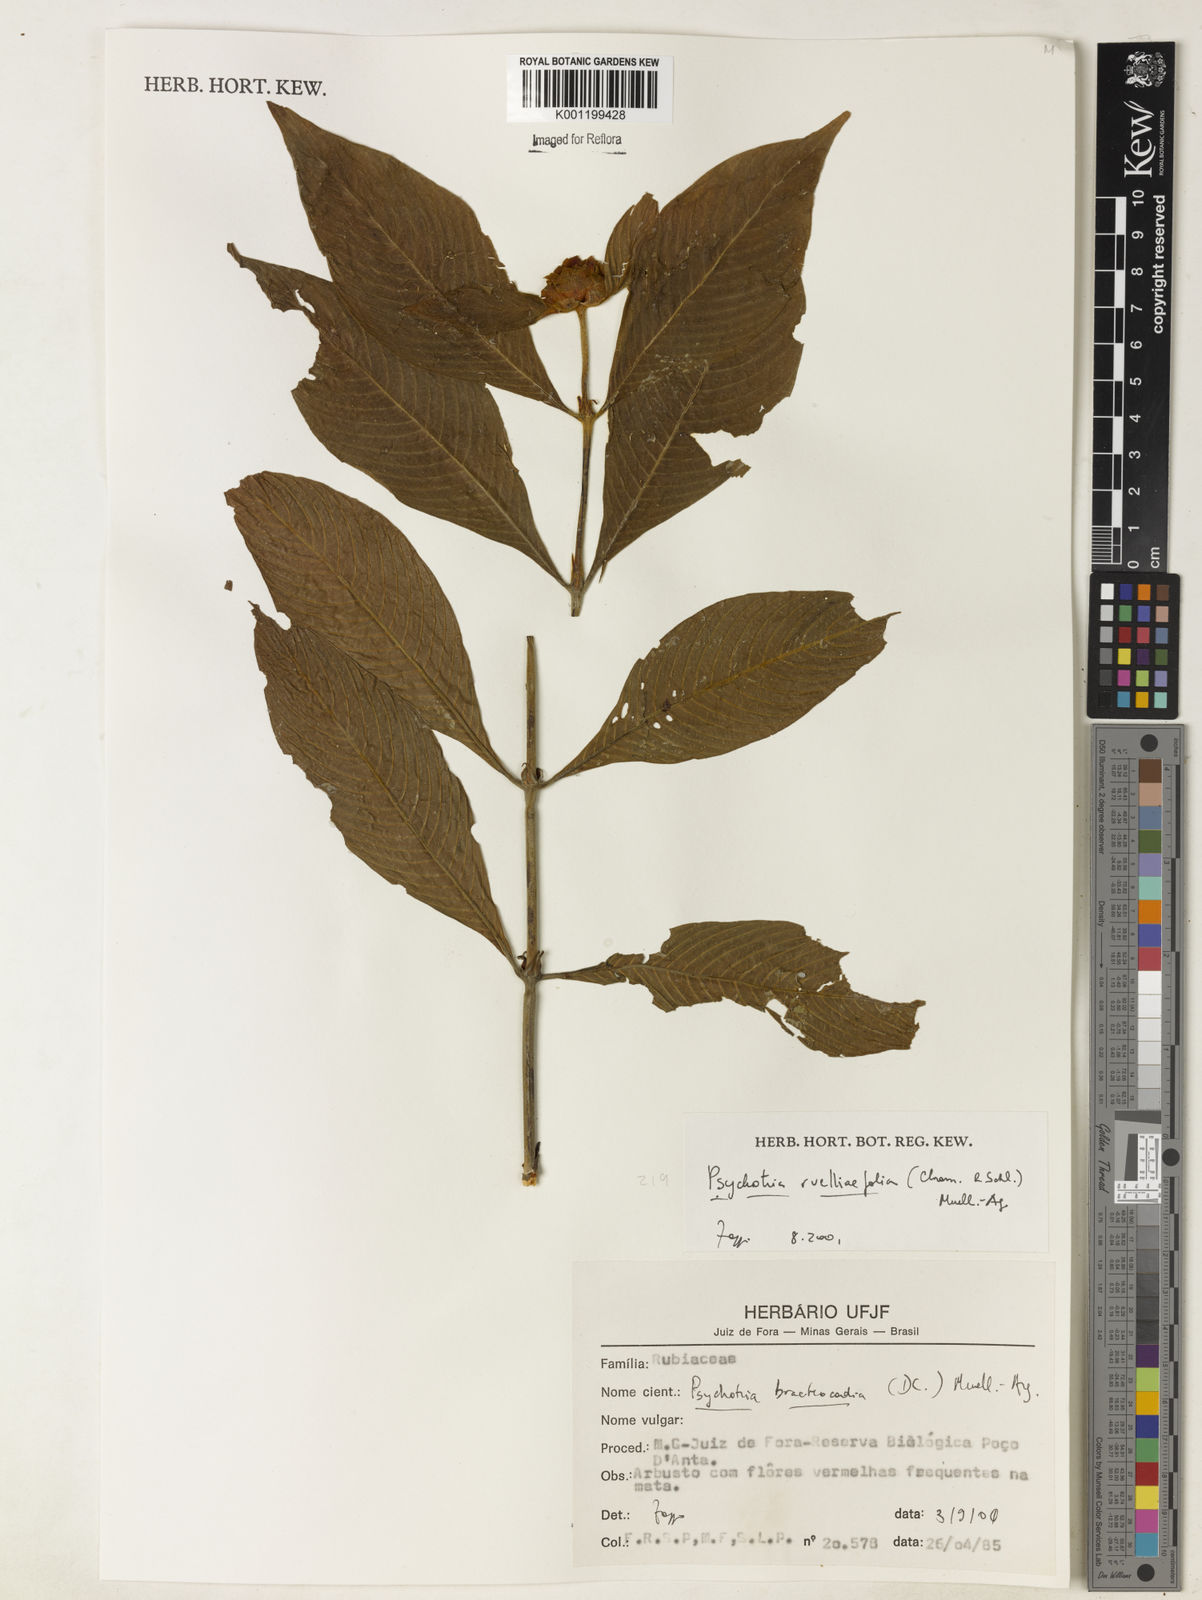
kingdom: Plantae
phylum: Tracheophyta
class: Magnoliopsida
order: Gentianales
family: Rubiaceae
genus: Psychotria
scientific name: Psychotria
